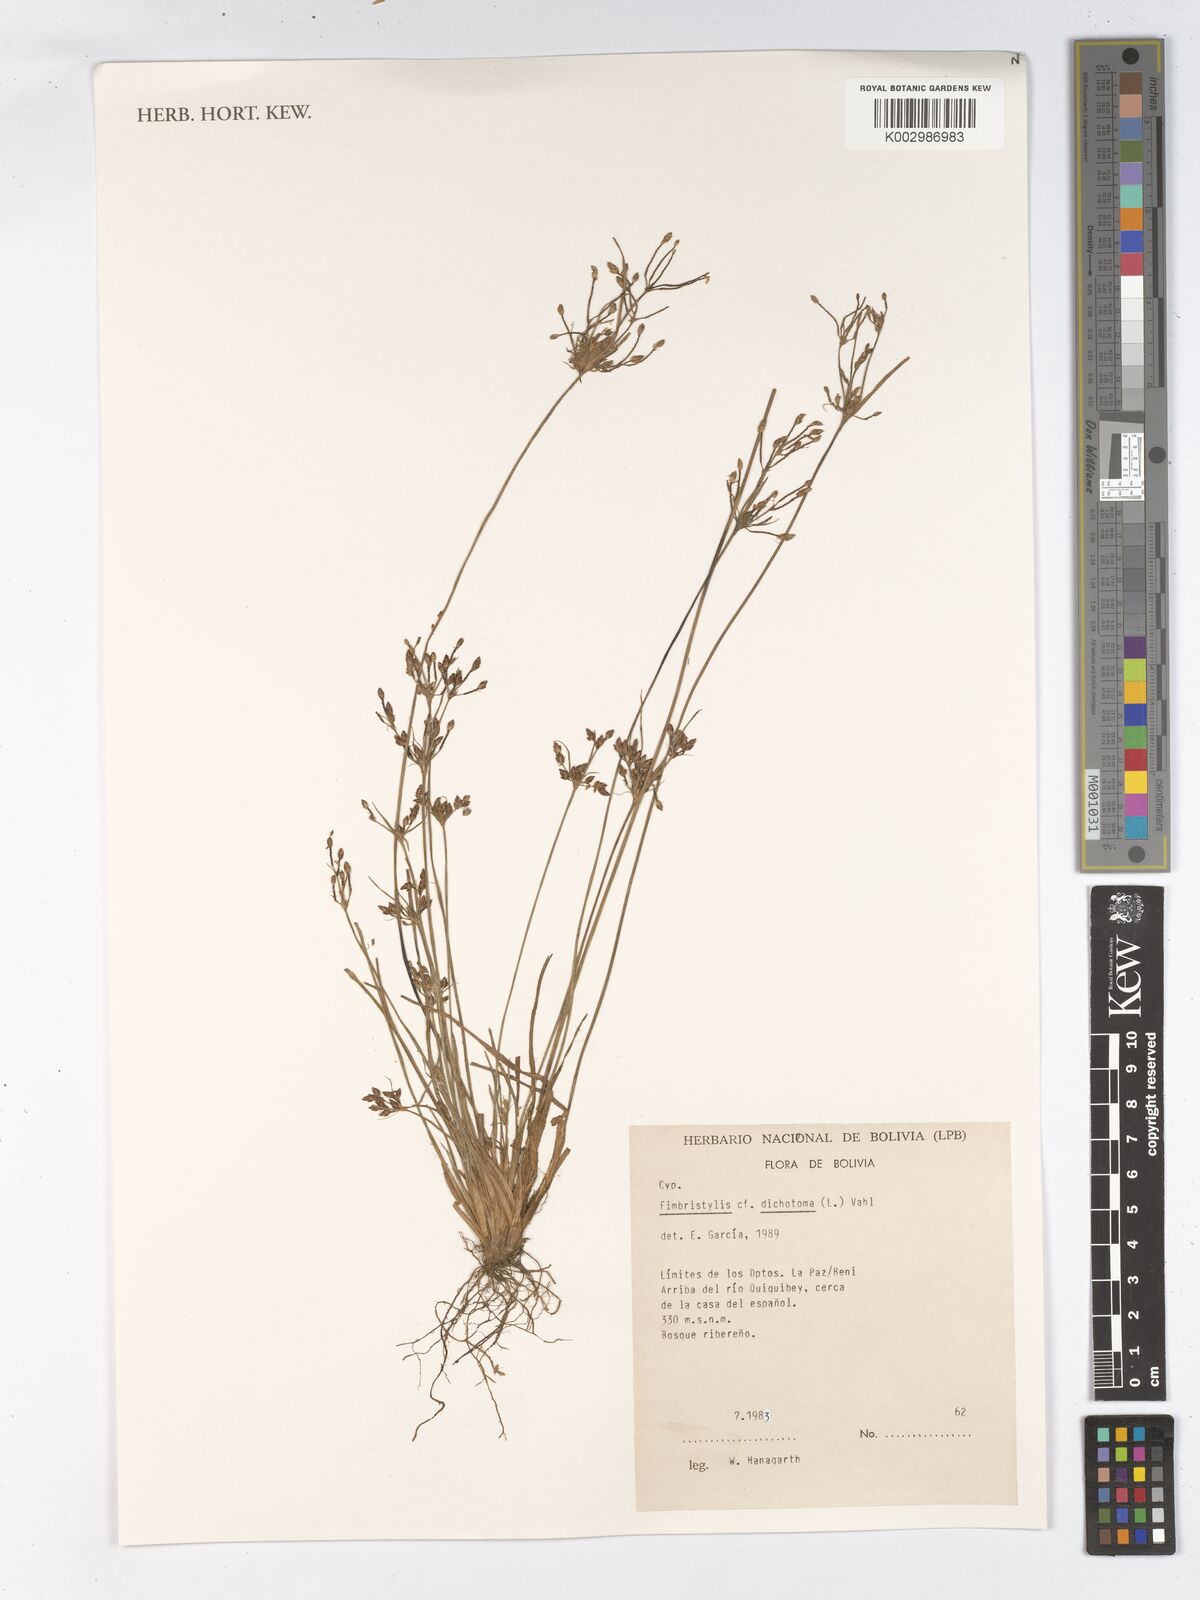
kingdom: Plantae
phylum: Tracheophyta
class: Liliopsida
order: Poales
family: Cyperaceae
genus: Fimbristylis
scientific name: Fimbristylis dichotoma
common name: Forked fimbry
